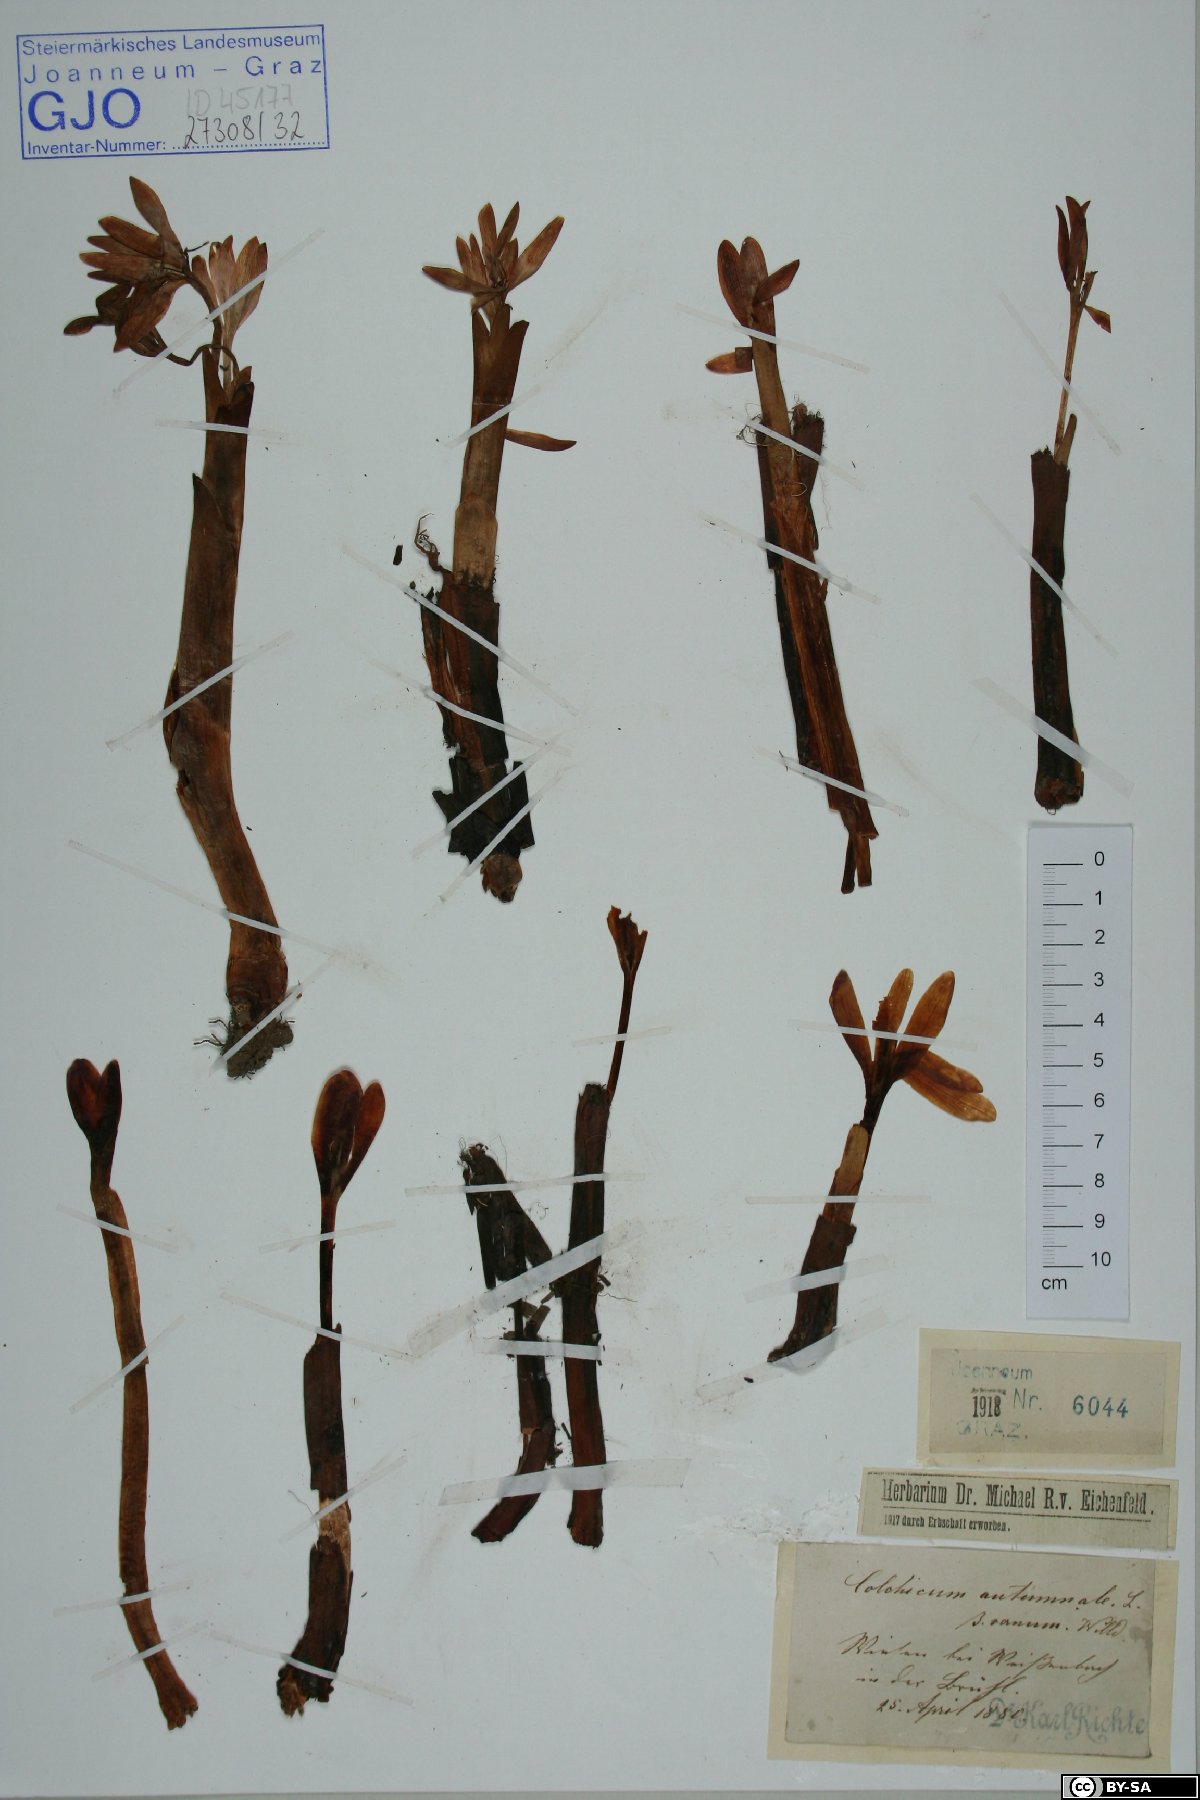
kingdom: Plantae
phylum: Tracheophyta
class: Liliopsida
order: Liliales
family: Colchicaceae
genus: Colchicum
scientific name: Colchicum autumnale
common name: Autumn crocus
